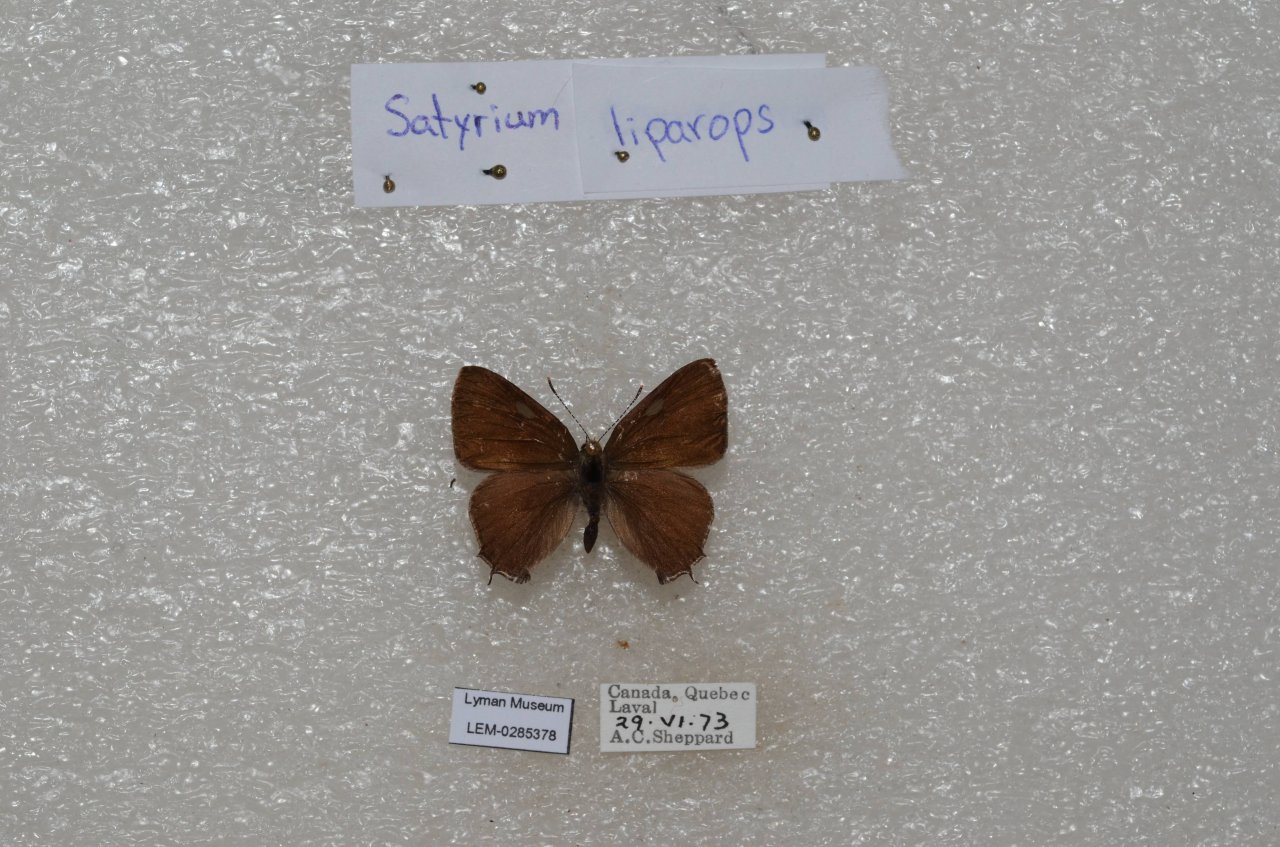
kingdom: Animalia
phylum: Arthropoda
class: Insecta
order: Lepidoptera
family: Lycaenidae
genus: Satyrium
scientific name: Satyrium liparops
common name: Striped Hairstreak
